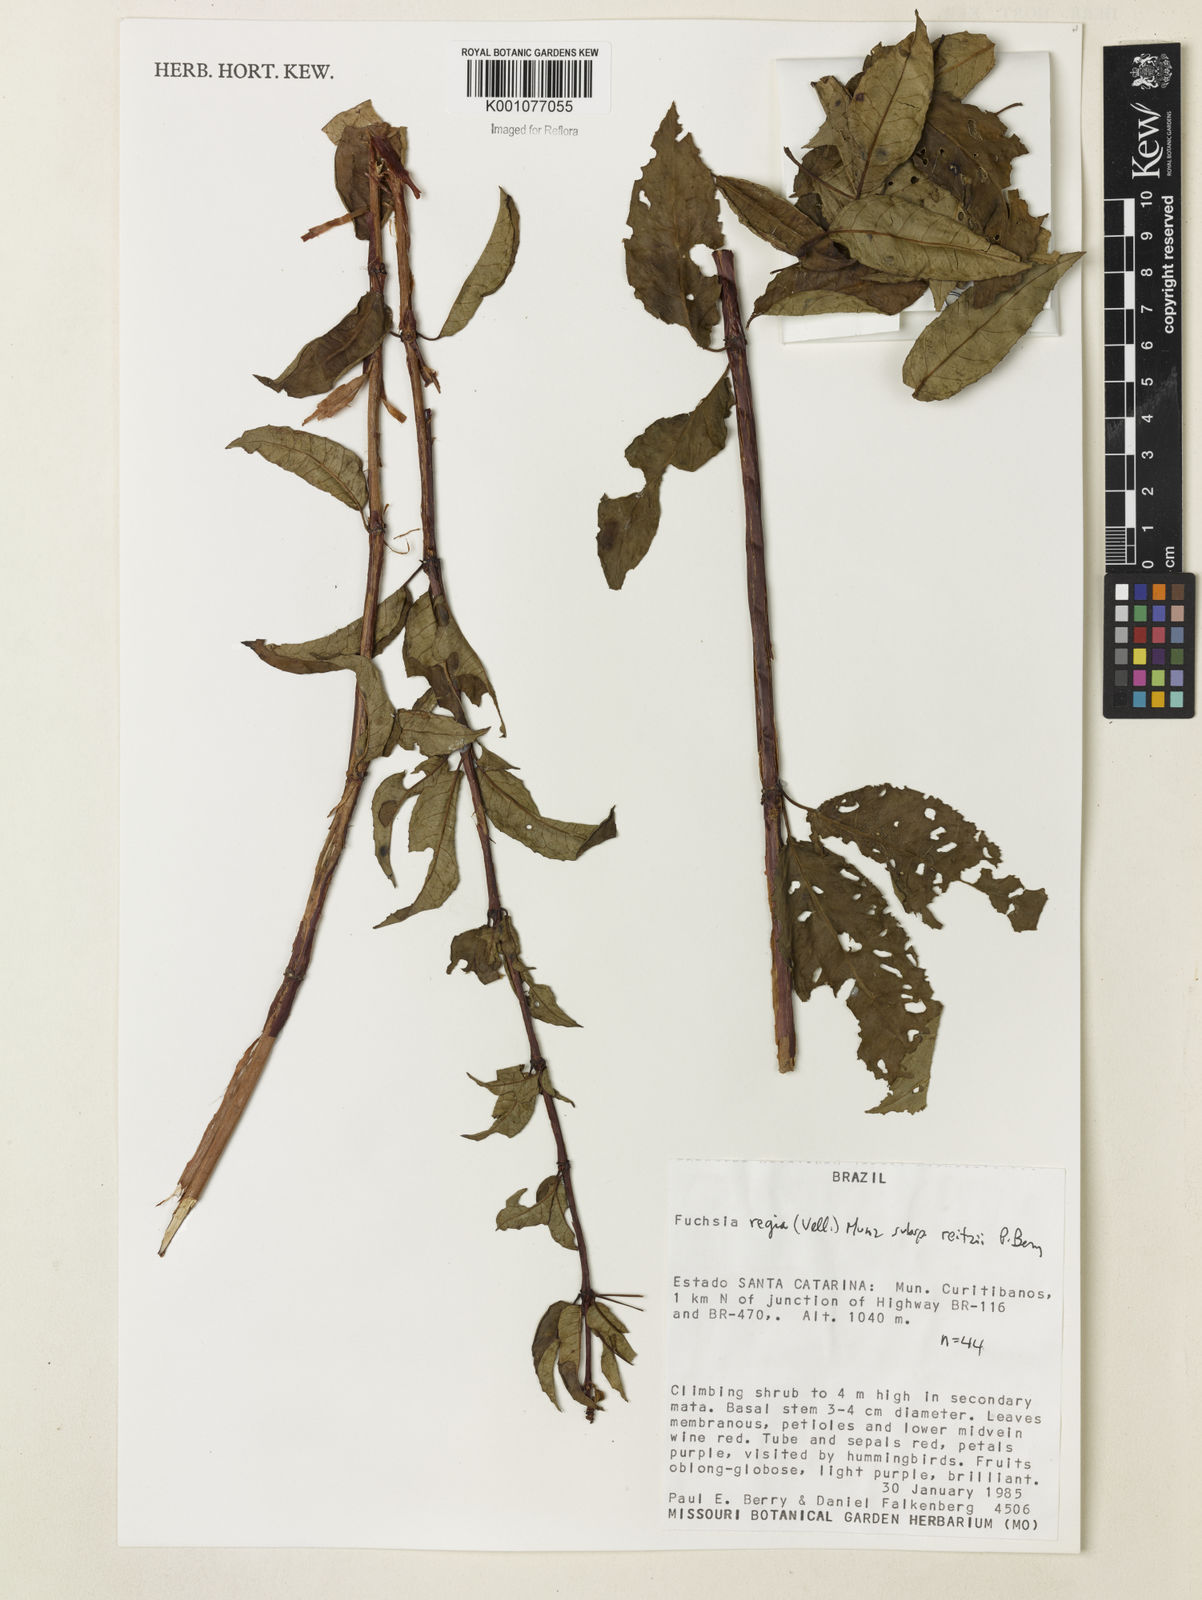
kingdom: Plantae
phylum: Tracheophyta
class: Magnoliopsida
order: Myrtales
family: Onagraceae
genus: Fuchsia
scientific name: Fuchsia regia
